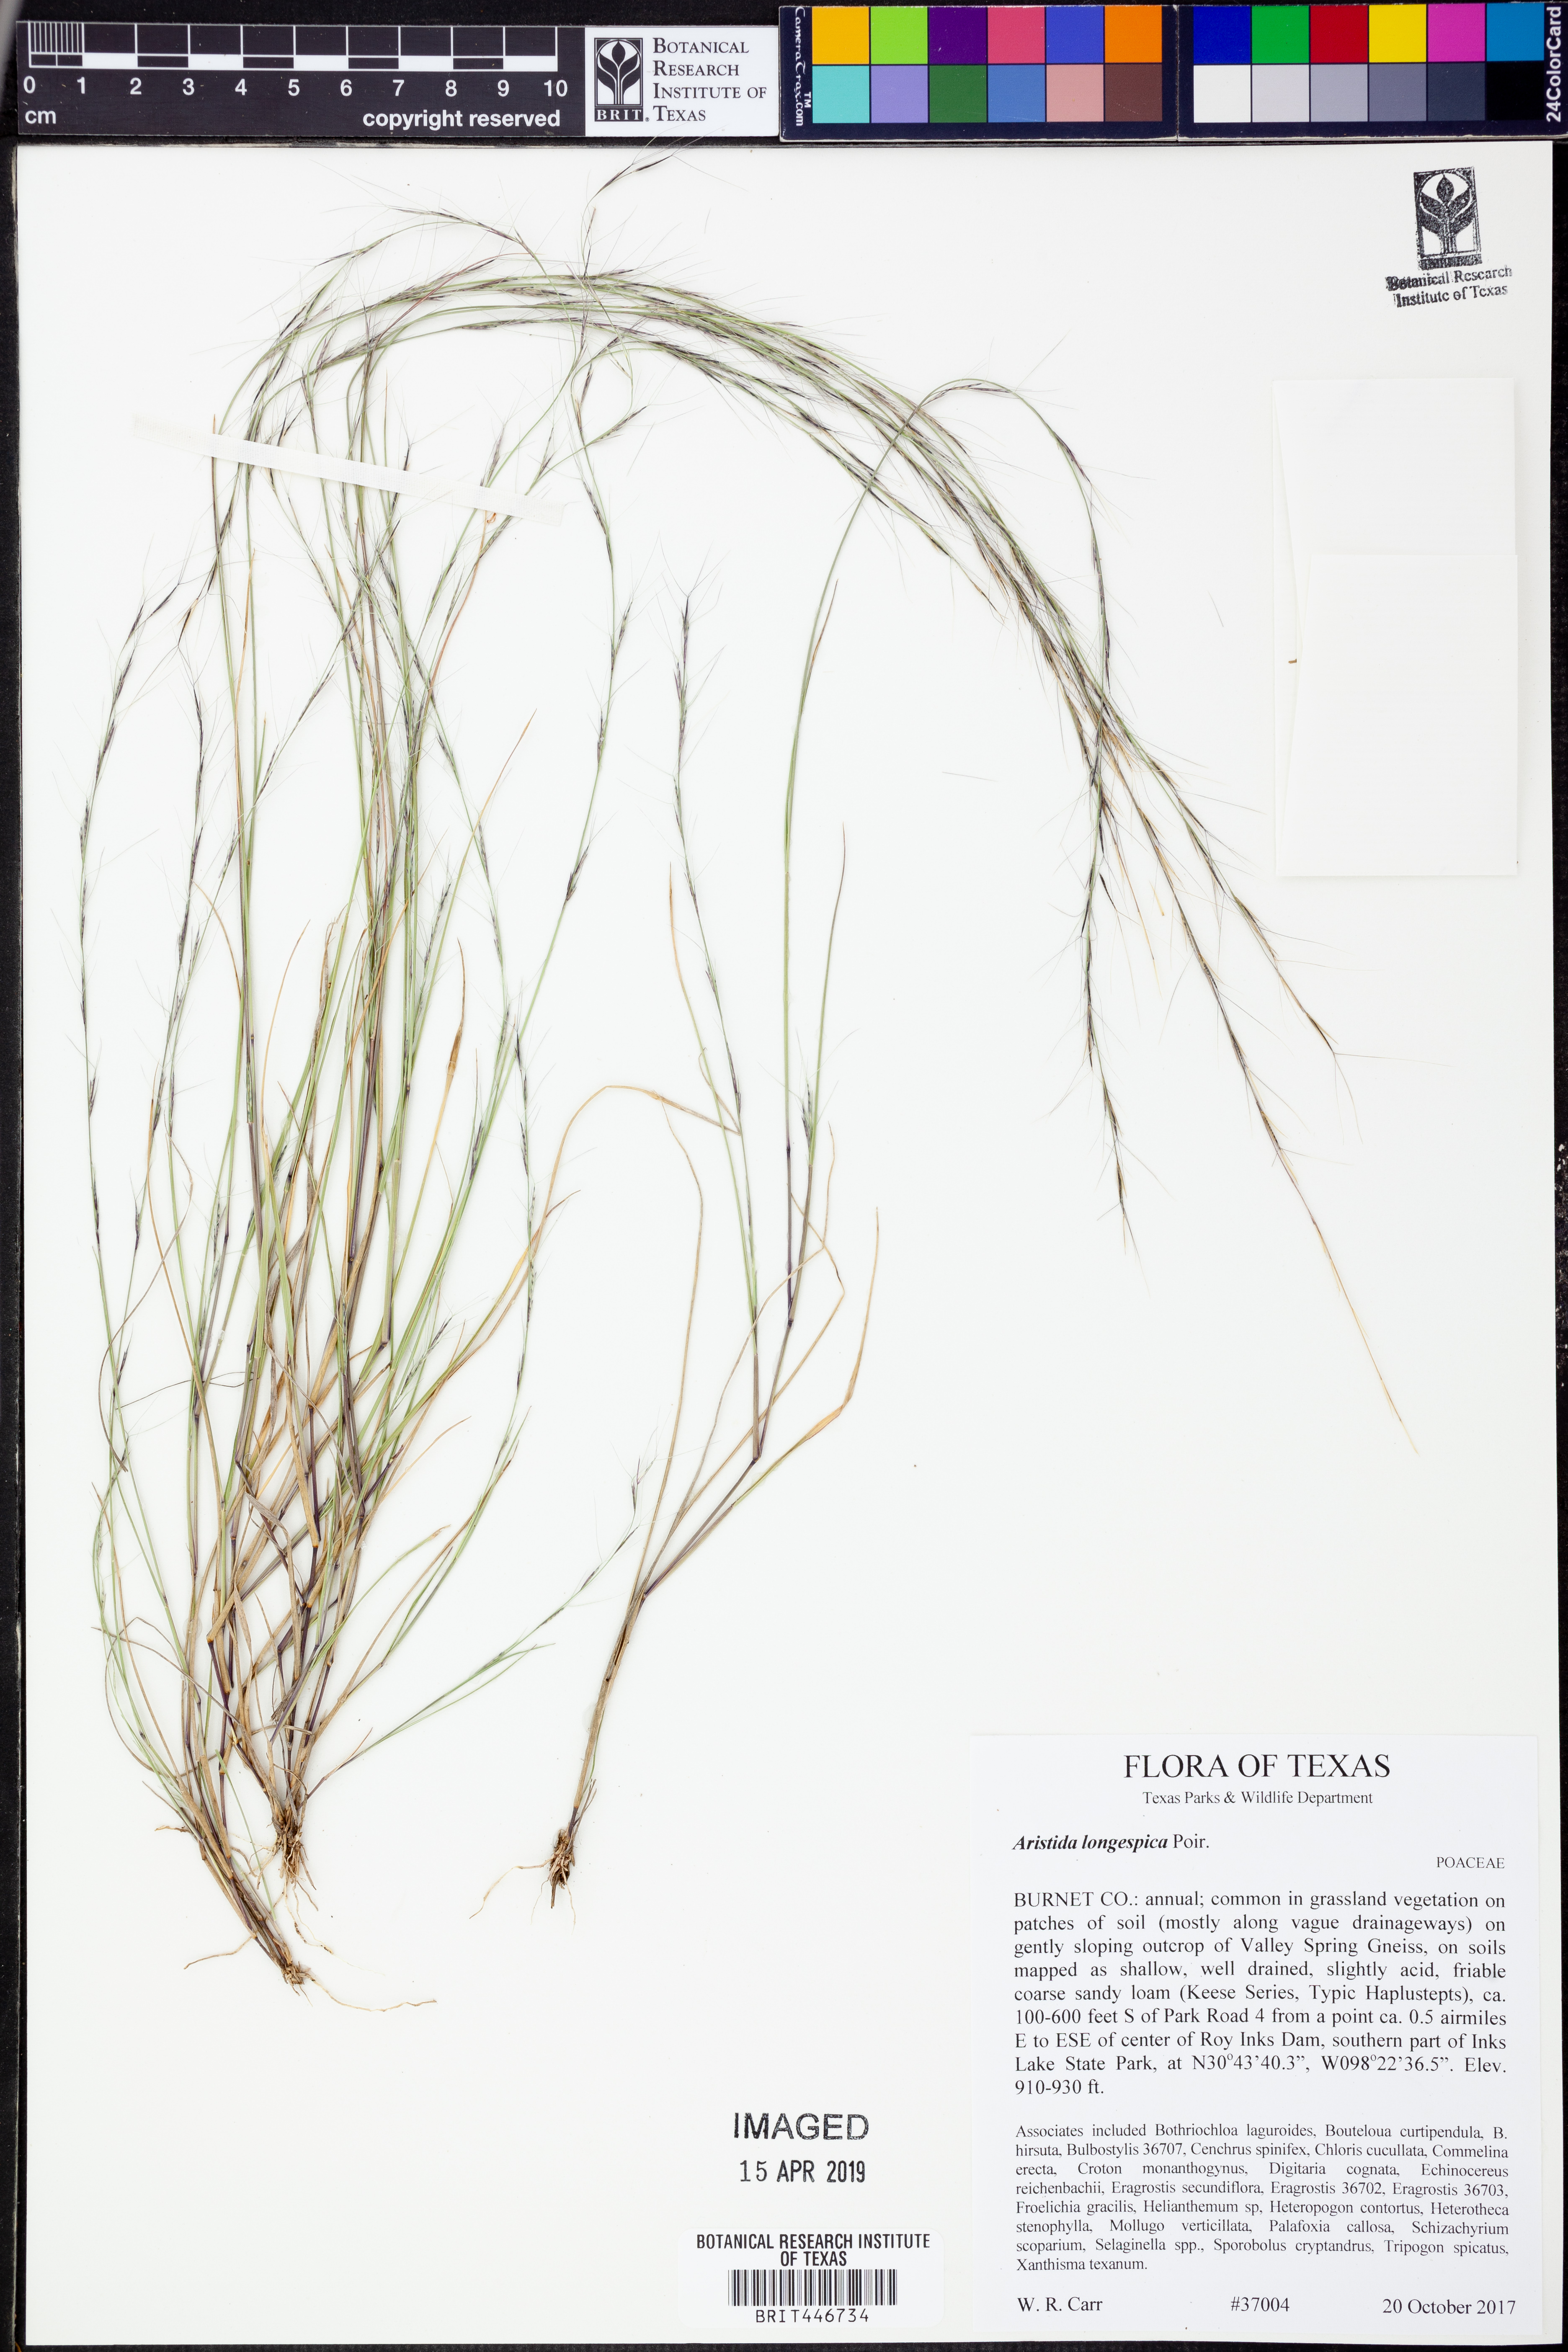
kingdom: Plantae
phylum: Tracheophyta
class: Liliopsida
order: Poales
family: Poaceae
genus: Aristida
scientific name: Aristida longespica
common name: Long-spiked triple-awned grass
